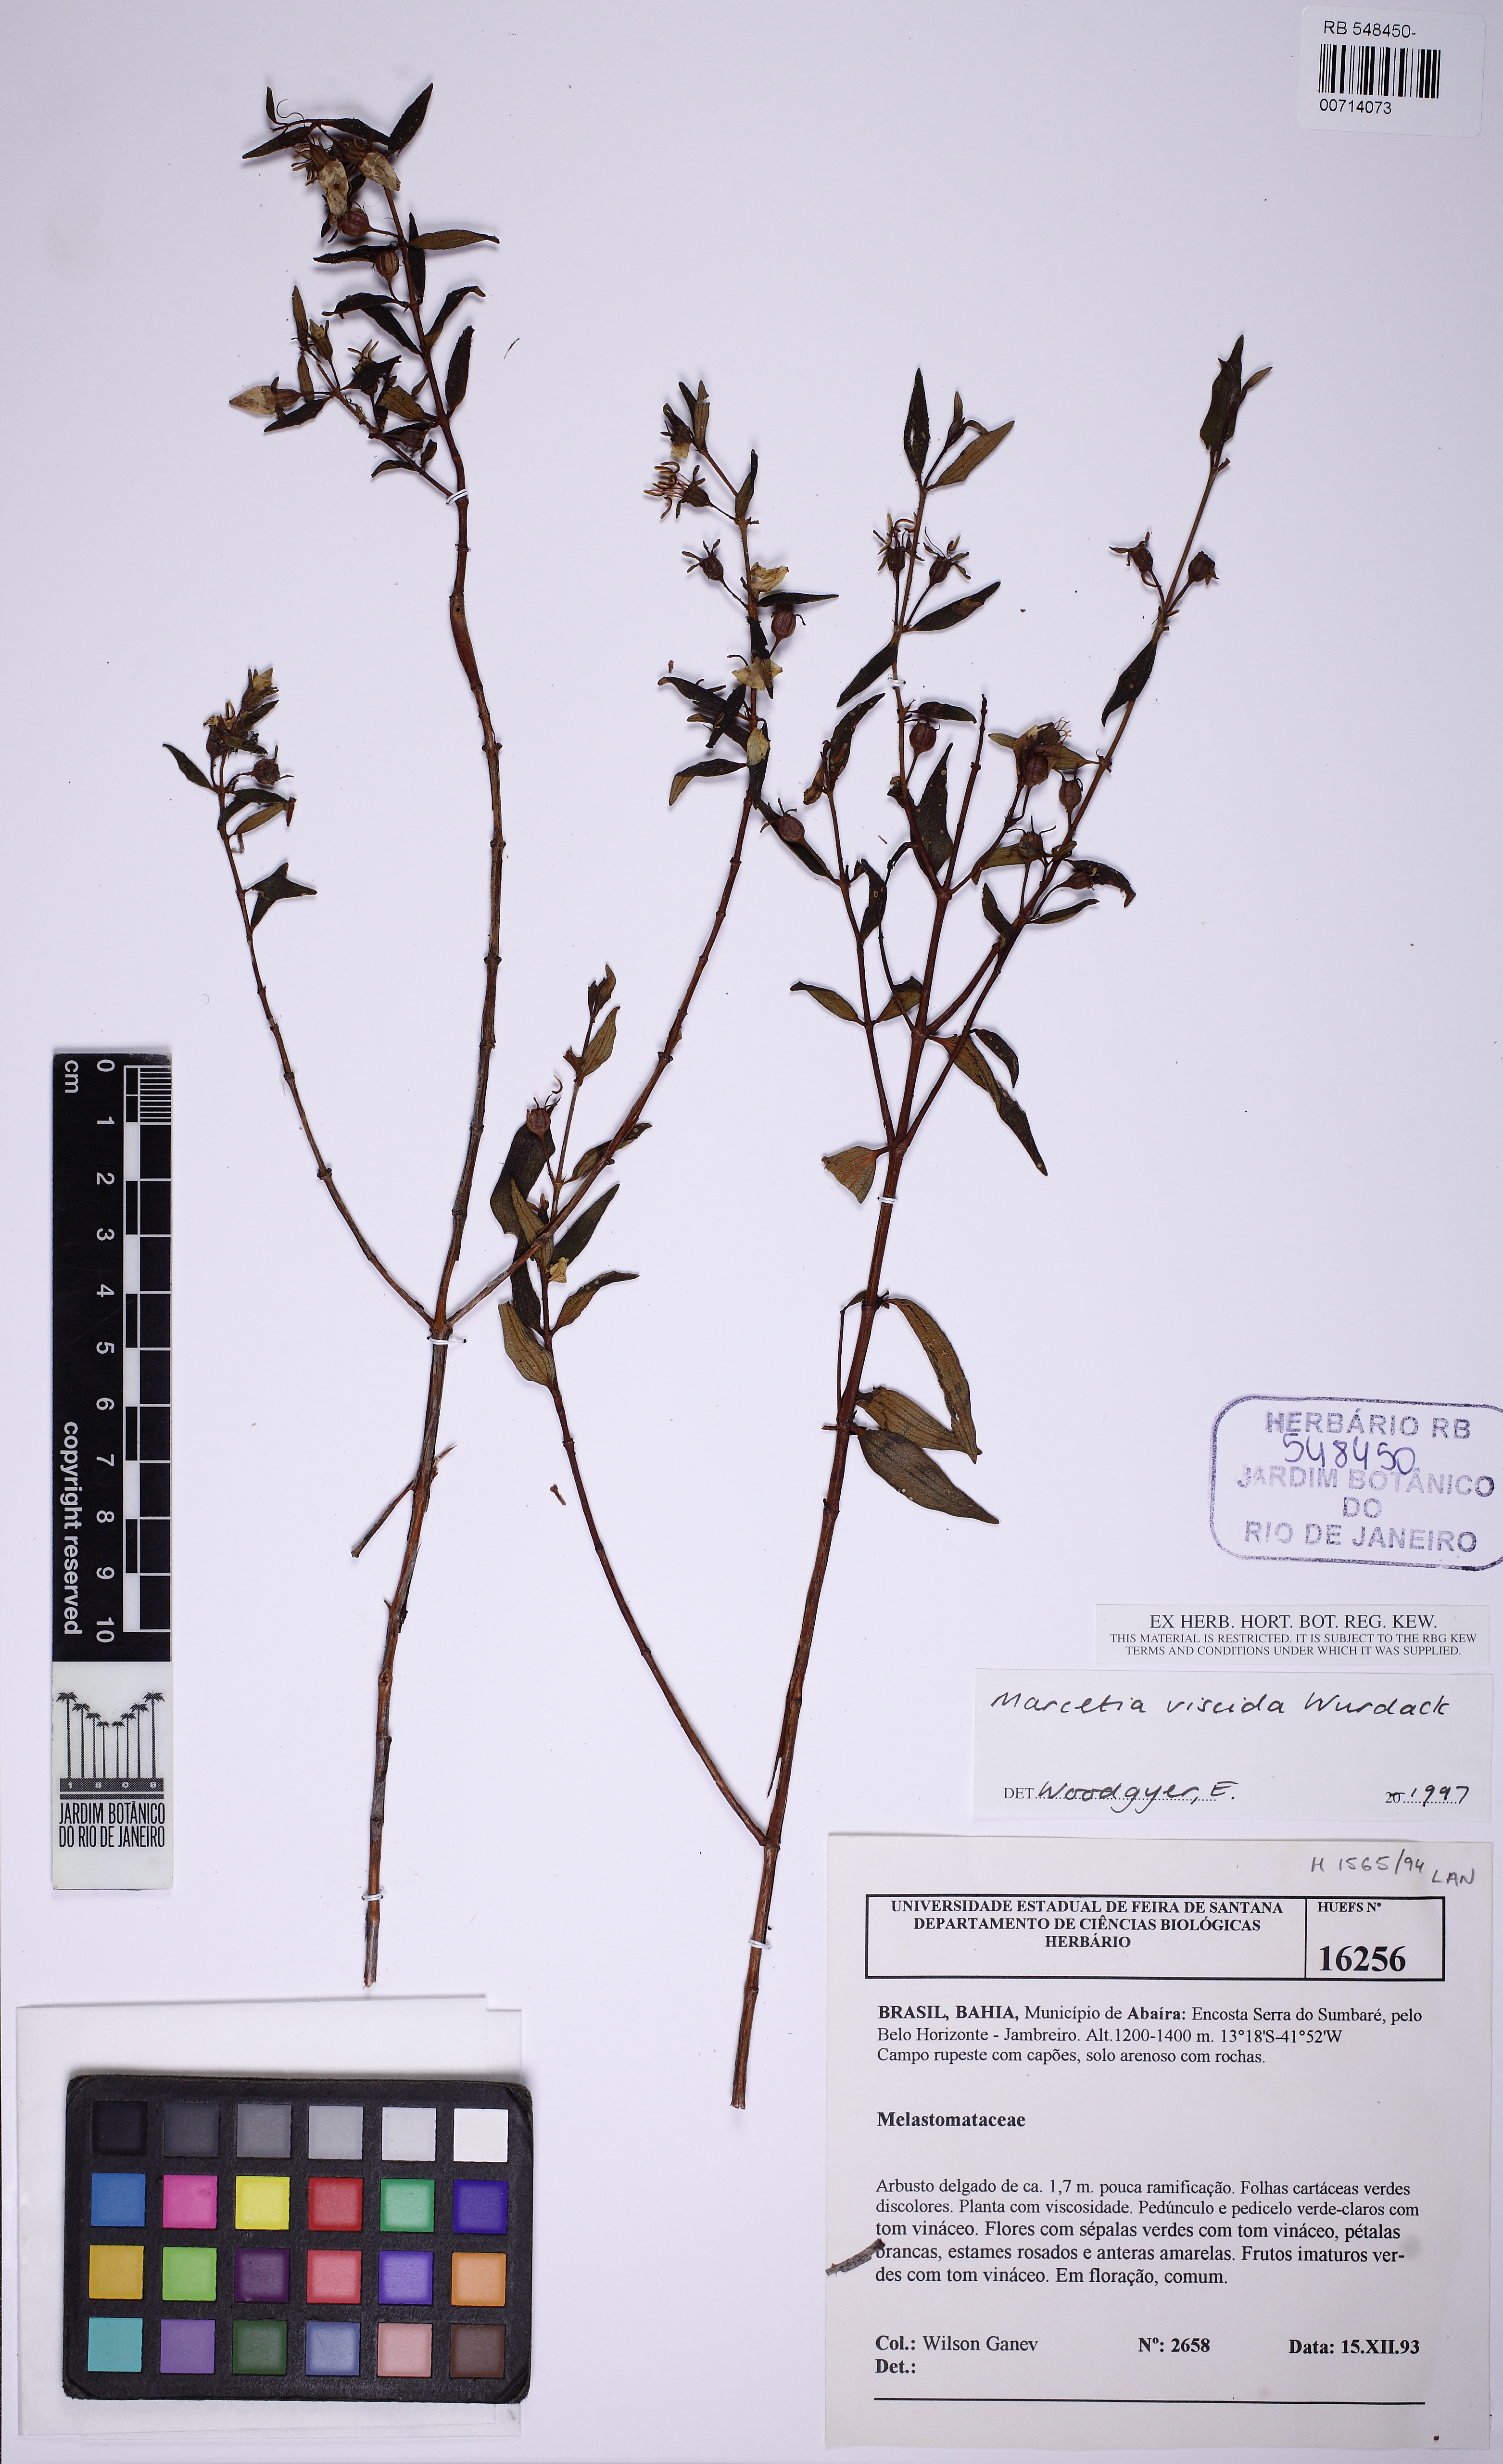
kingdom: Plantae
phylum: Tracheophyta
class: Magnoliopsida
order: Myrtales
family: Melastomataceae
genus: Marcetia
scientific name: Marcetia viscida
